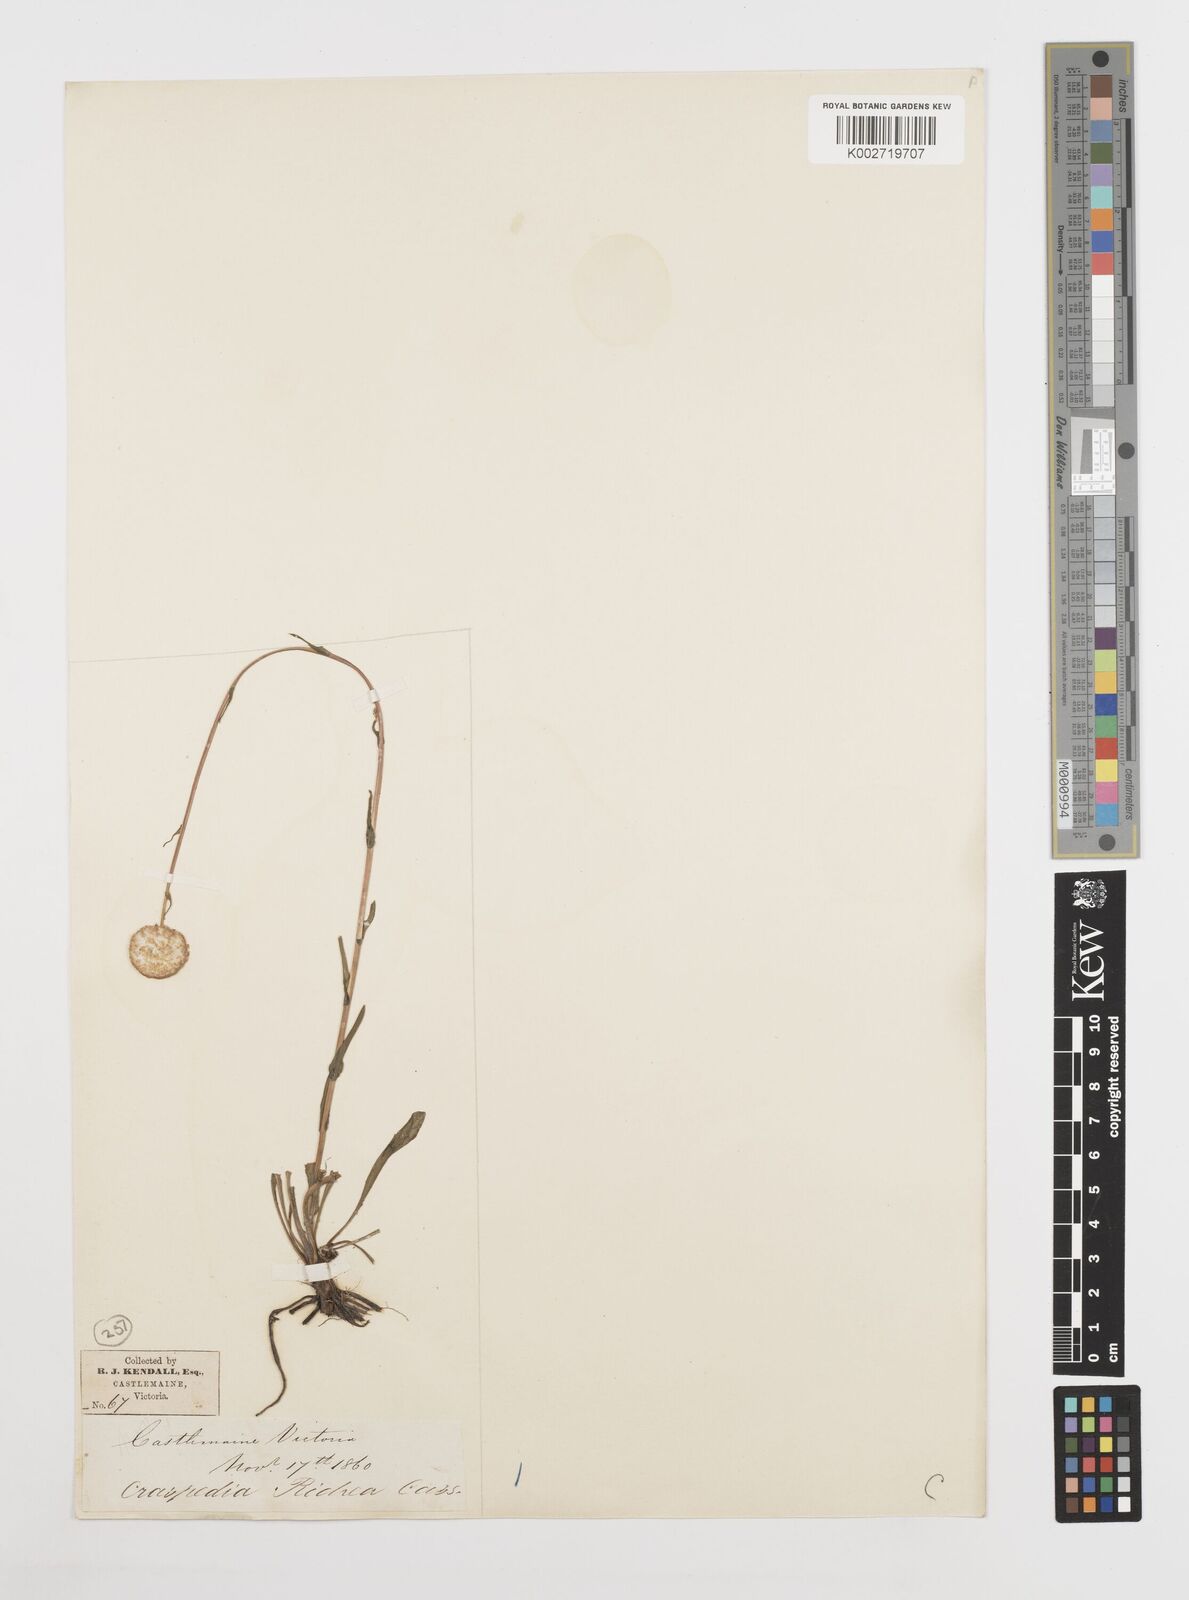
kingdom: Plantae
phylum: Tracheophyta
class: Magnoliopsida
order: Asterales
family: Asteraceae
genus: Craspedia
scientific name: Craspedia glauca
